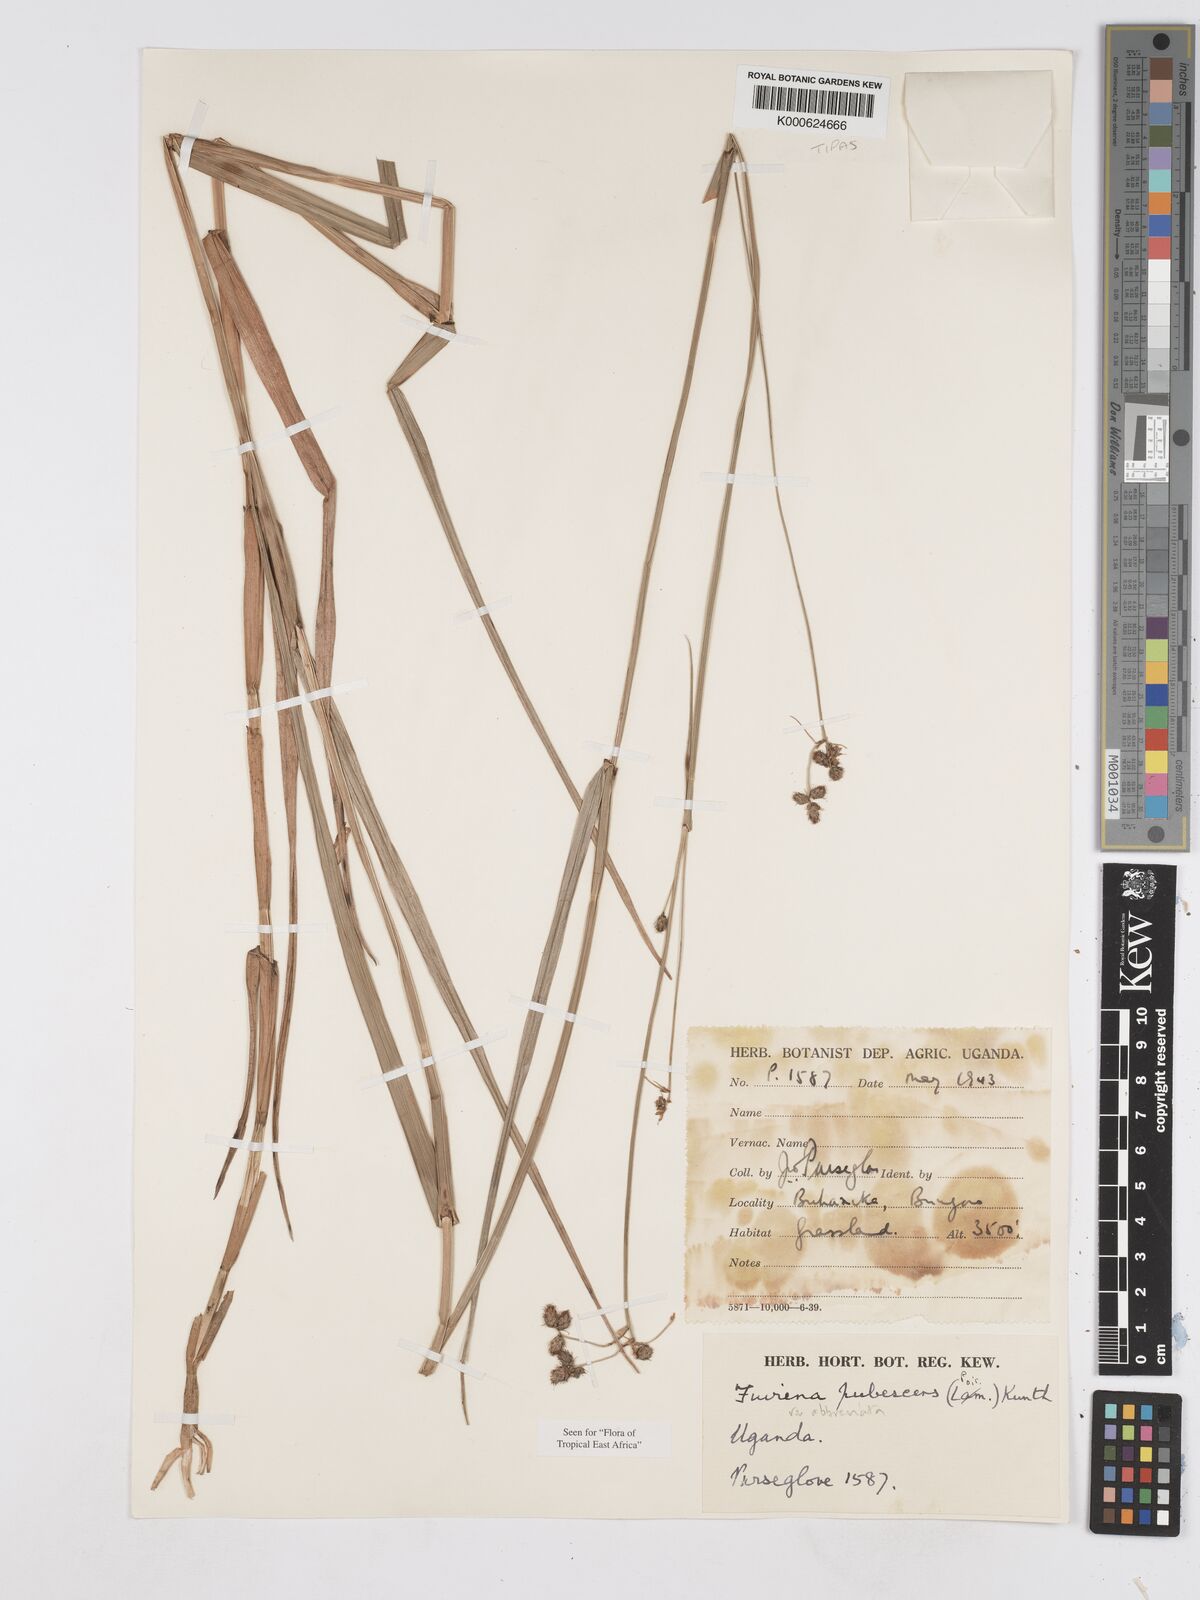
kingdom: Plantae
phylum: Tracheophyta
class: Liliopsida
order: Poales
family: Cyperaceae
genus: Fuirena
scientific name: Fuirena pubescens
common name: Hairy sedge
